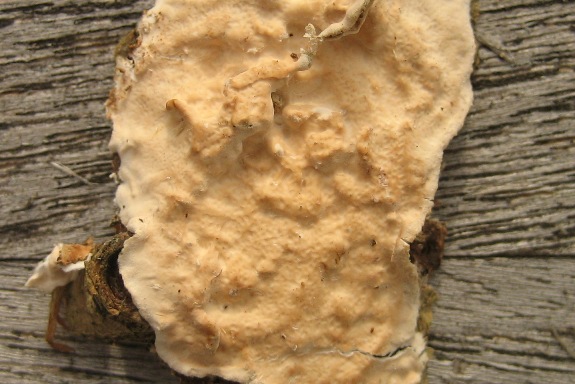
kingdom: Fungi
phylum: Basidiomycota
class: Agaricomycetes
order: Polyporales
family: Irpicaceae
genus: Byssomerulius
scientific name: Byssomerulius corium
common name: læder-åresvamp
